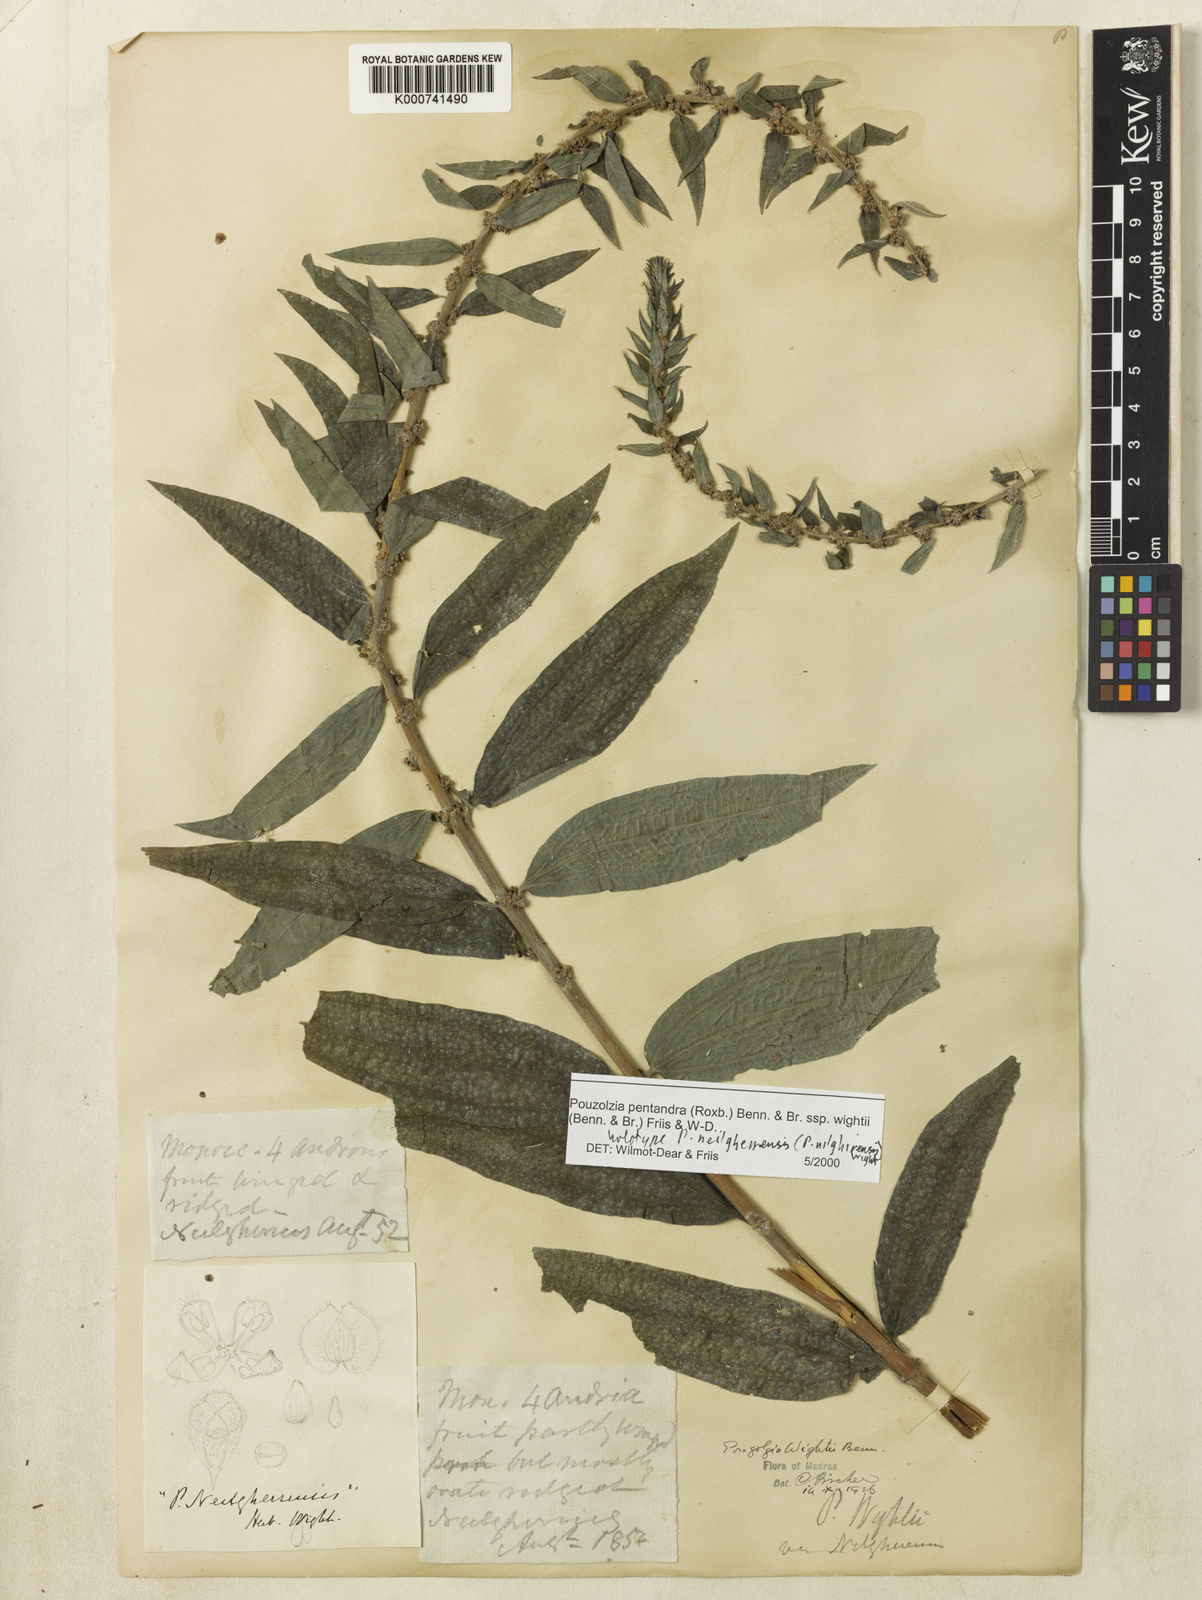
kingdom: Plantae
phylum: Tracheophyta
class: Magnoliopsida
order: Rosales
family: Urticaceae
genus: Gonostegia
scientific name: Gonostegia pentandra
